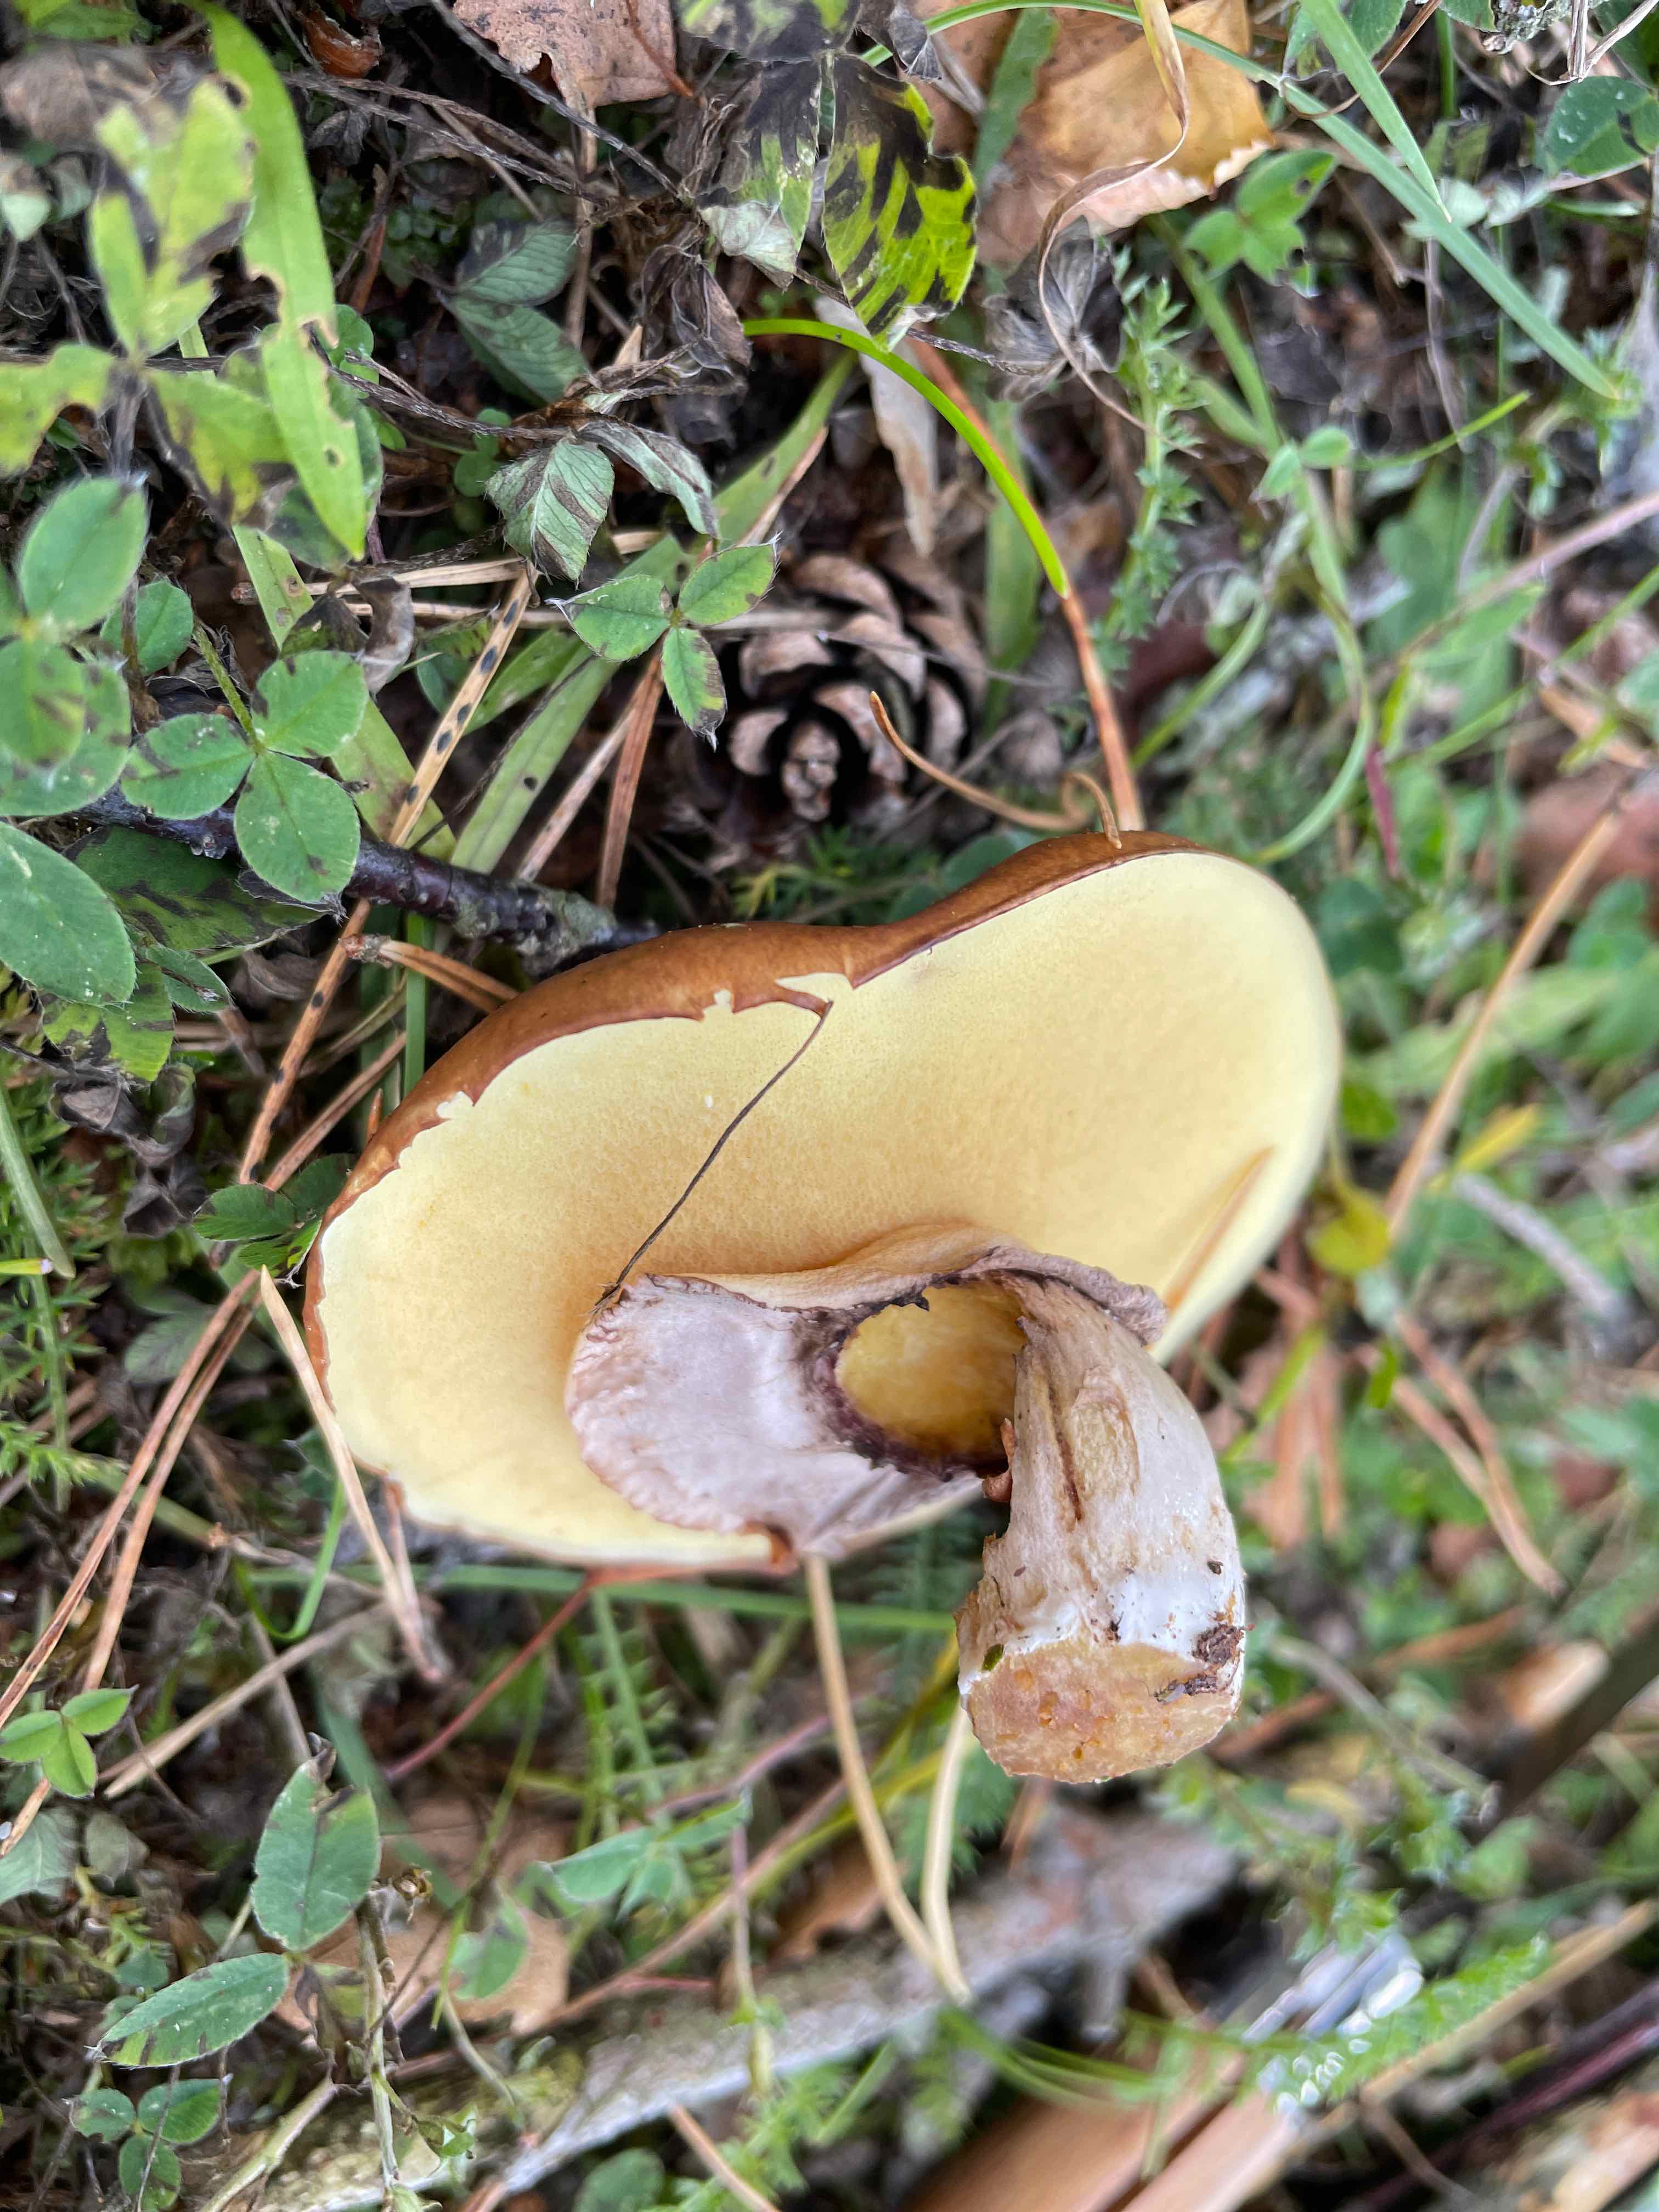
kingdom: Fungi
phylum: Basidiomycota
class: Agaricomycetes
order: Boletales
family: Suillaceae
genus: Suillus
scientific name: Suillus luteus
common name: brungul slimrørhat
